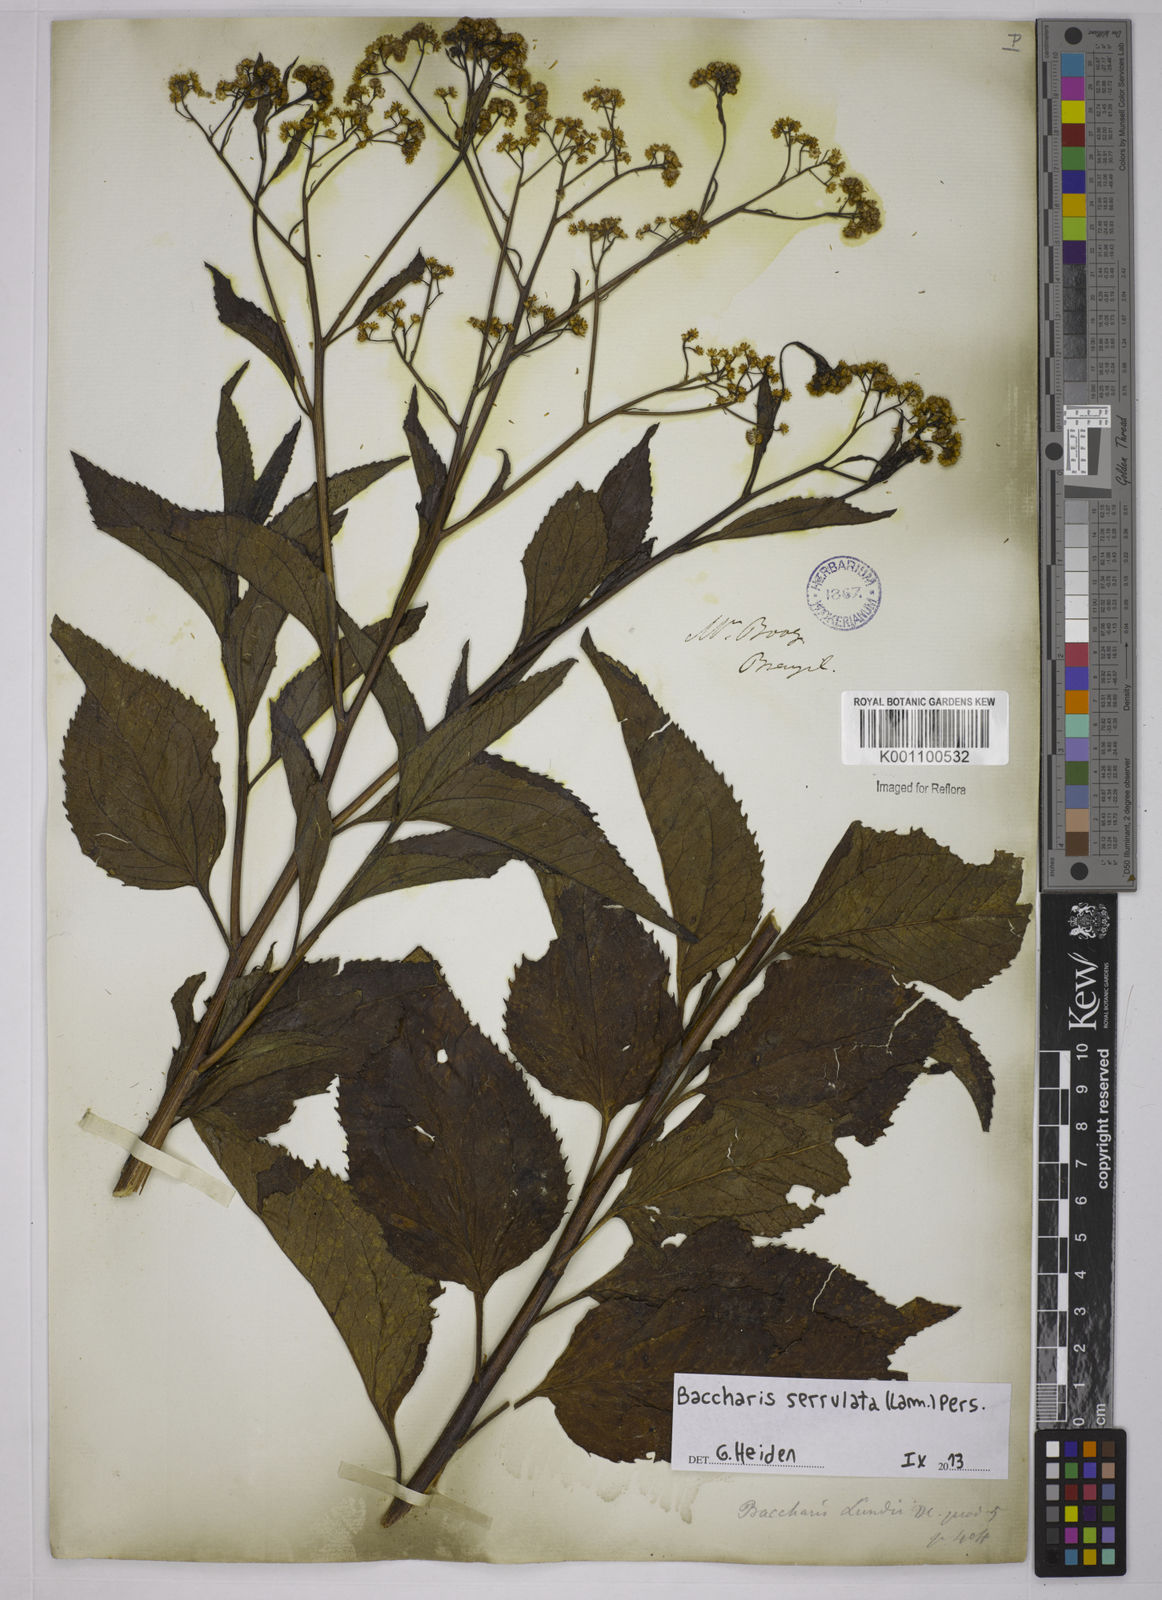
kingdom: Plantae
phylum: Tracheophyta
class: Magnoliopsida
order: Asterales
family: Asteraceae
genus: Baccharis
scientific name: Baccharis serrulata
